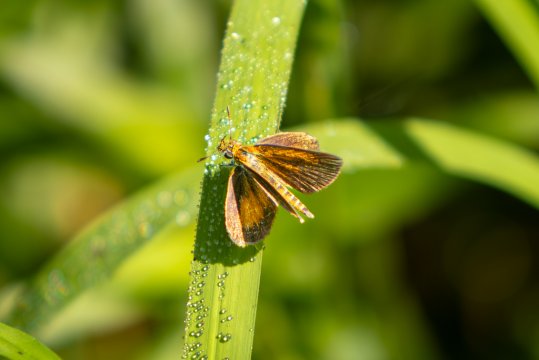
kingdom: Animalia
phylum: Arthropoda
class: Insecta
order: Lepidoptera
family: Hesperiidae
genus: Ancyloxypha
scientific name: Ancyloxypha numitor
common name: Least Skipper
